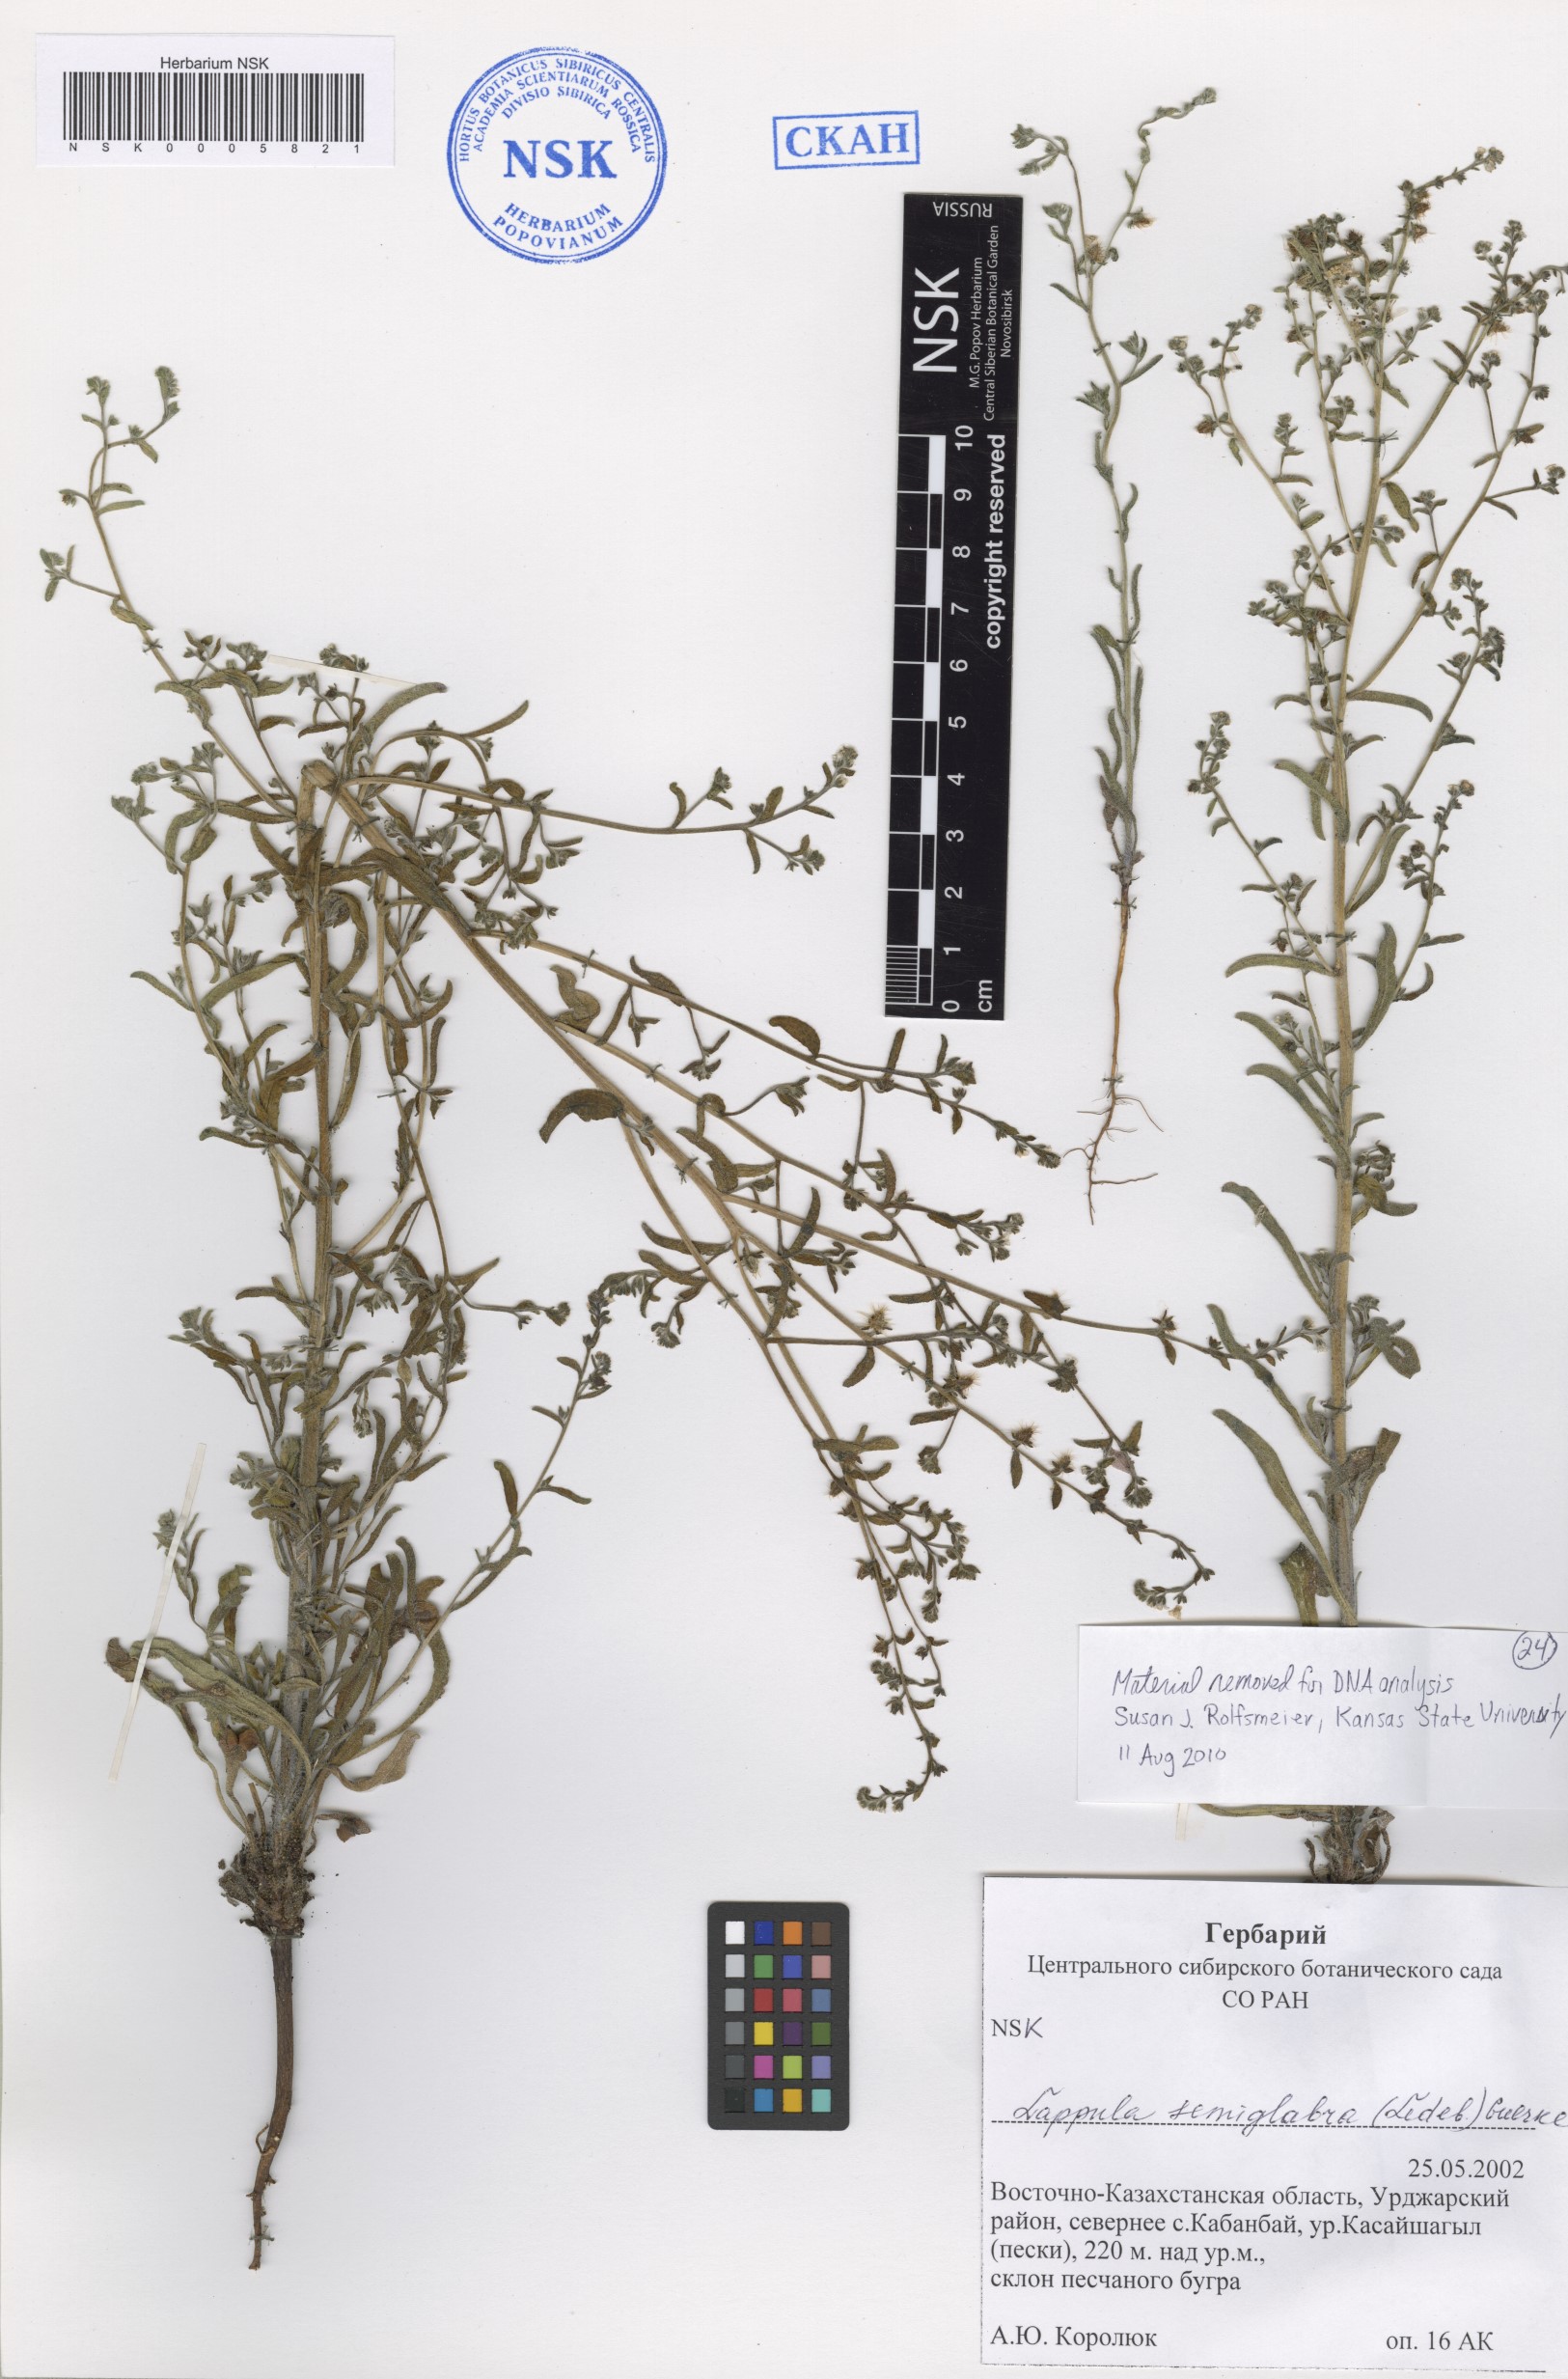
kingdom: Plantae
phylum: Tracheophyta
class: Magnoliopsida
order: Boraginales
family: Boraginaceae
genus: Lappula
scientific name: Lappula patula
